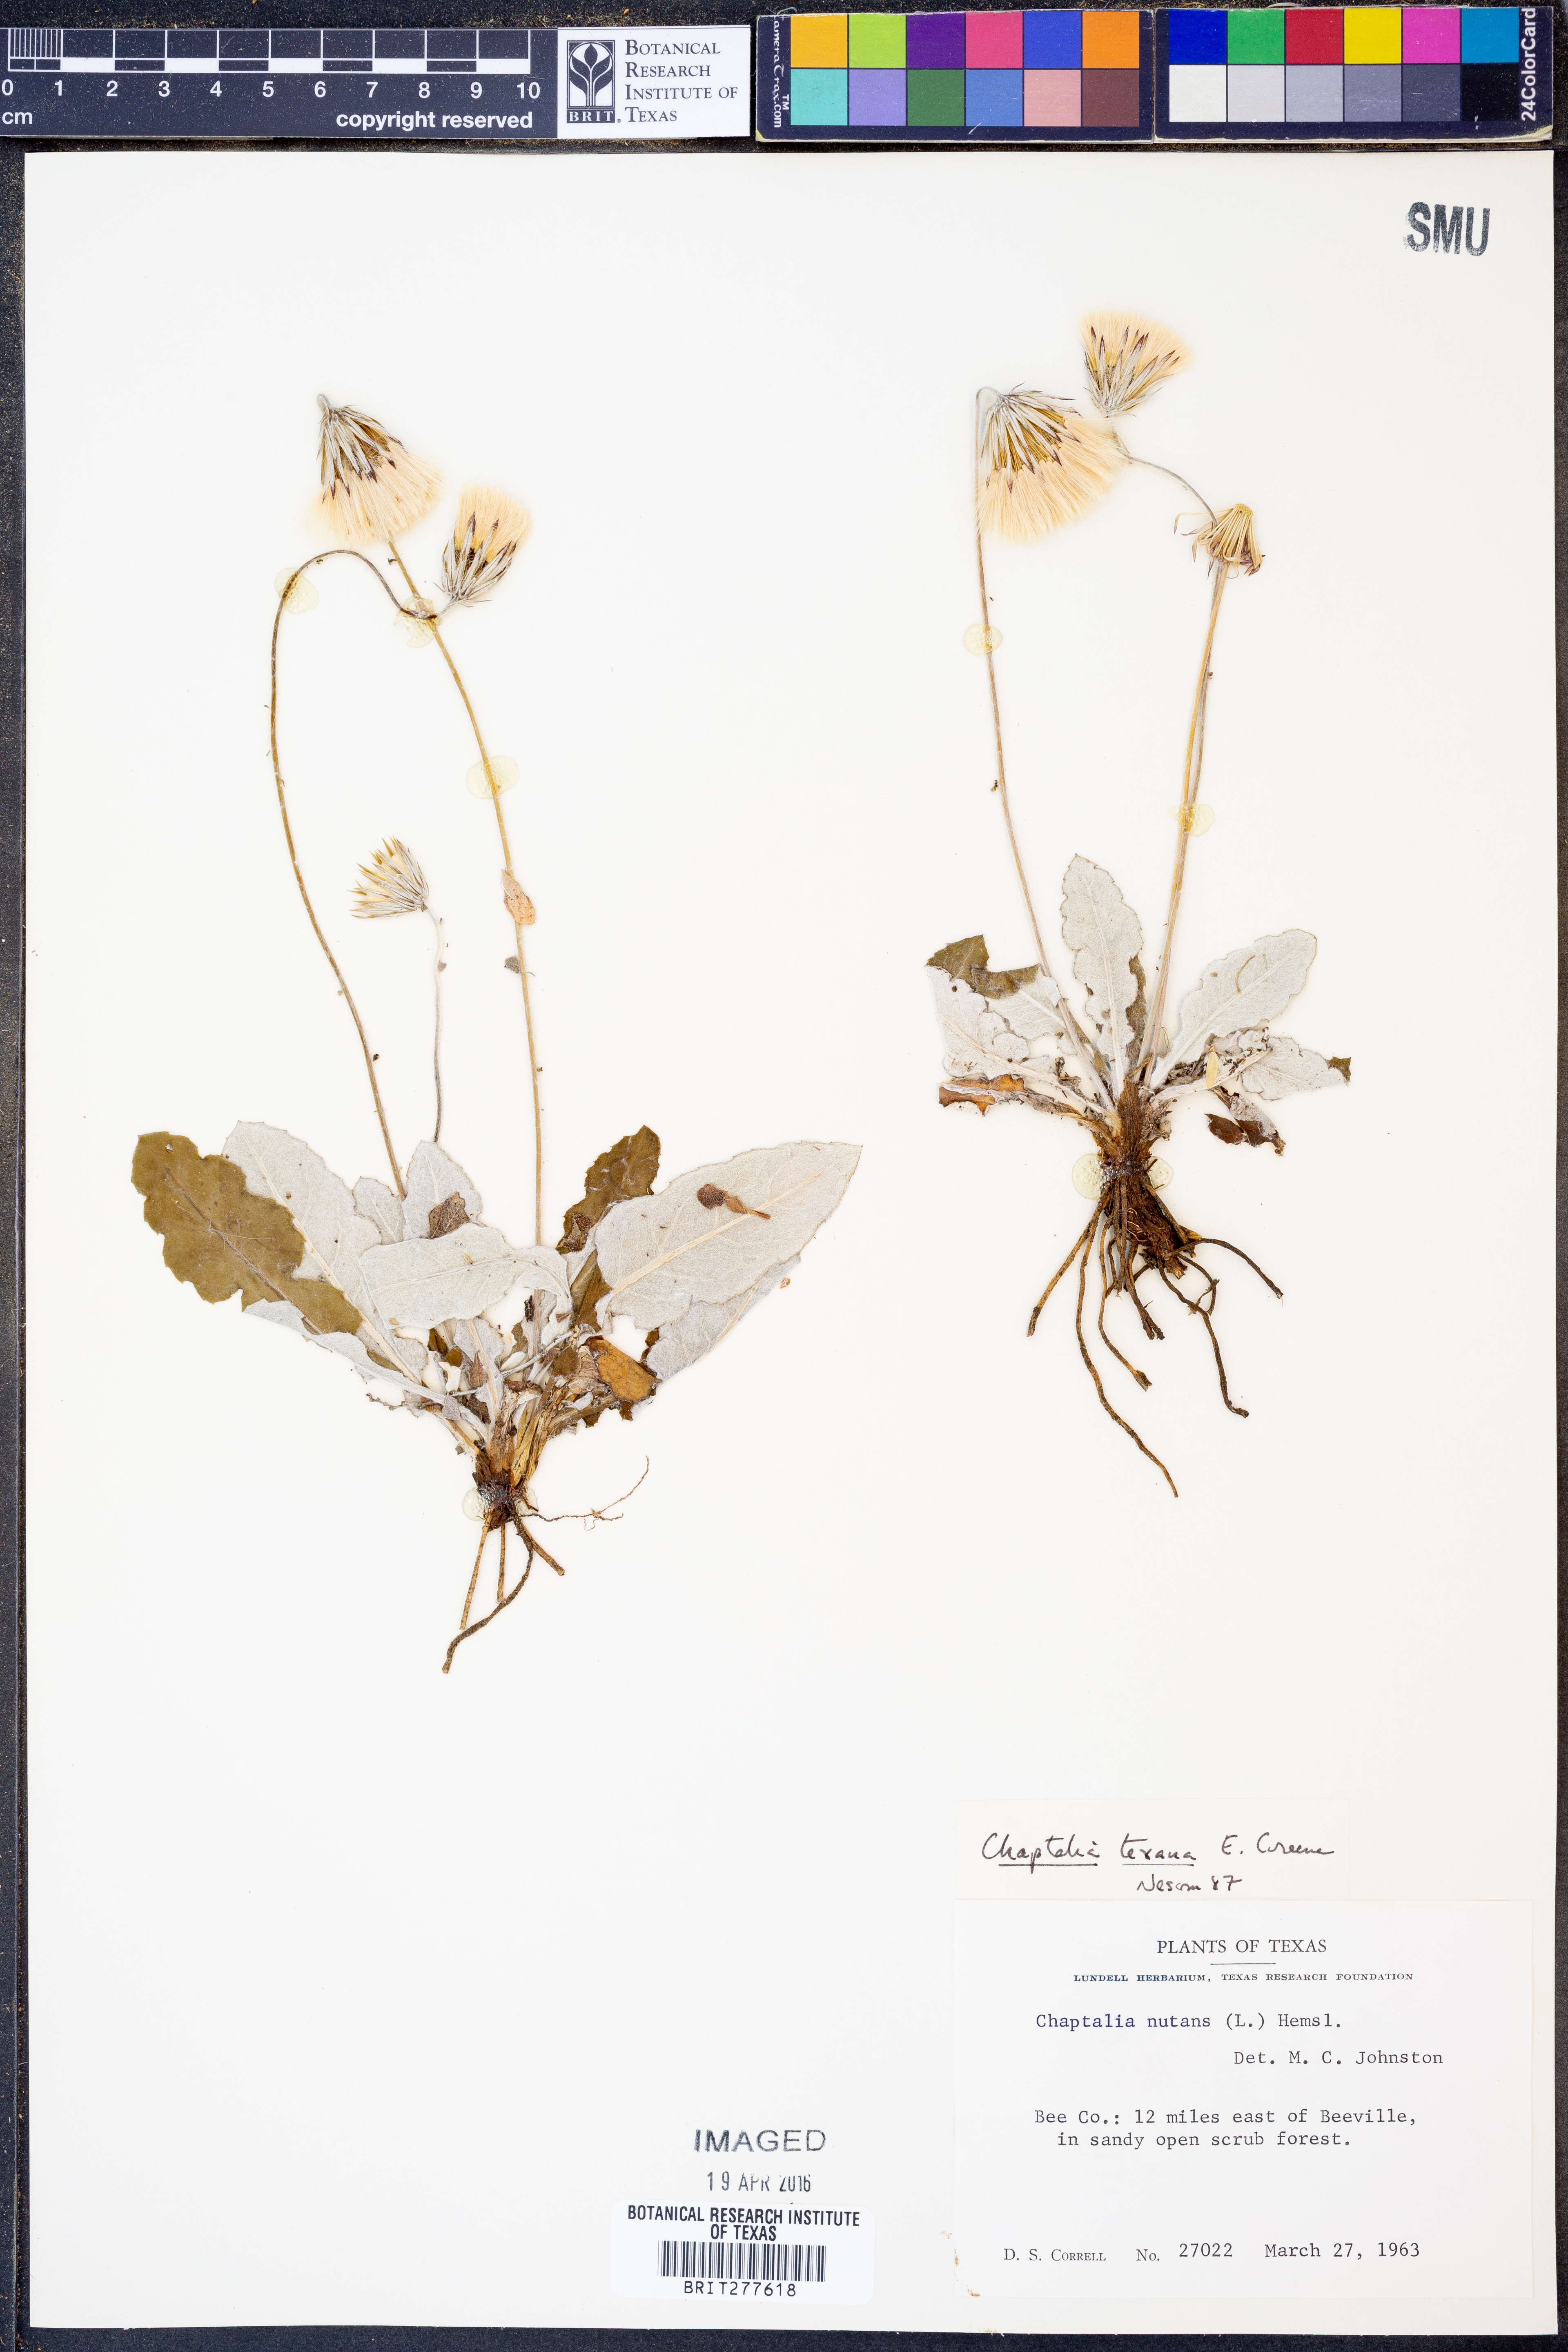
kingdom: Plantae
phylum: Tracheophyta
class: Magnoliopsida
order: Asterales
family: Asteraceae
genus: Chaptalia
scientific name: Chaptalia texana
